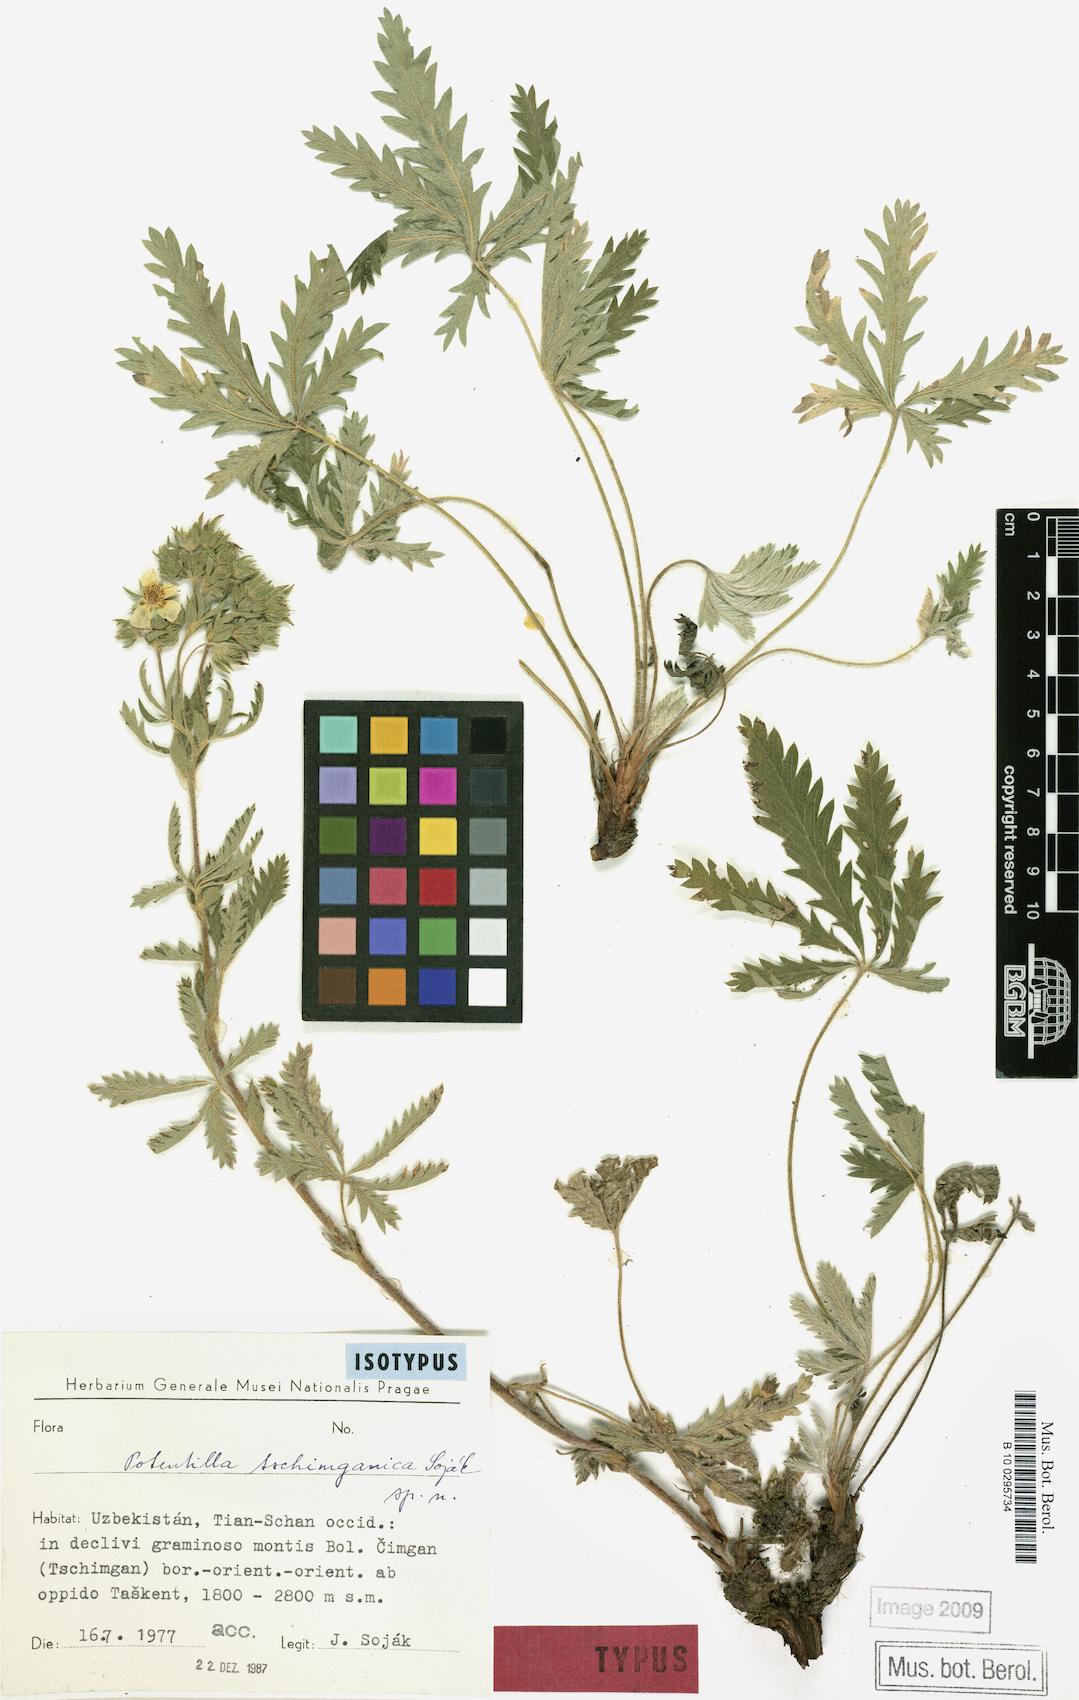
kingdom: Plantae
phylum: Tracheophyta
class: Magnoliopsida
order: Rosales
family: Rosaceae
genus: Potentilla
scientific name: Potentilla tschimganica
